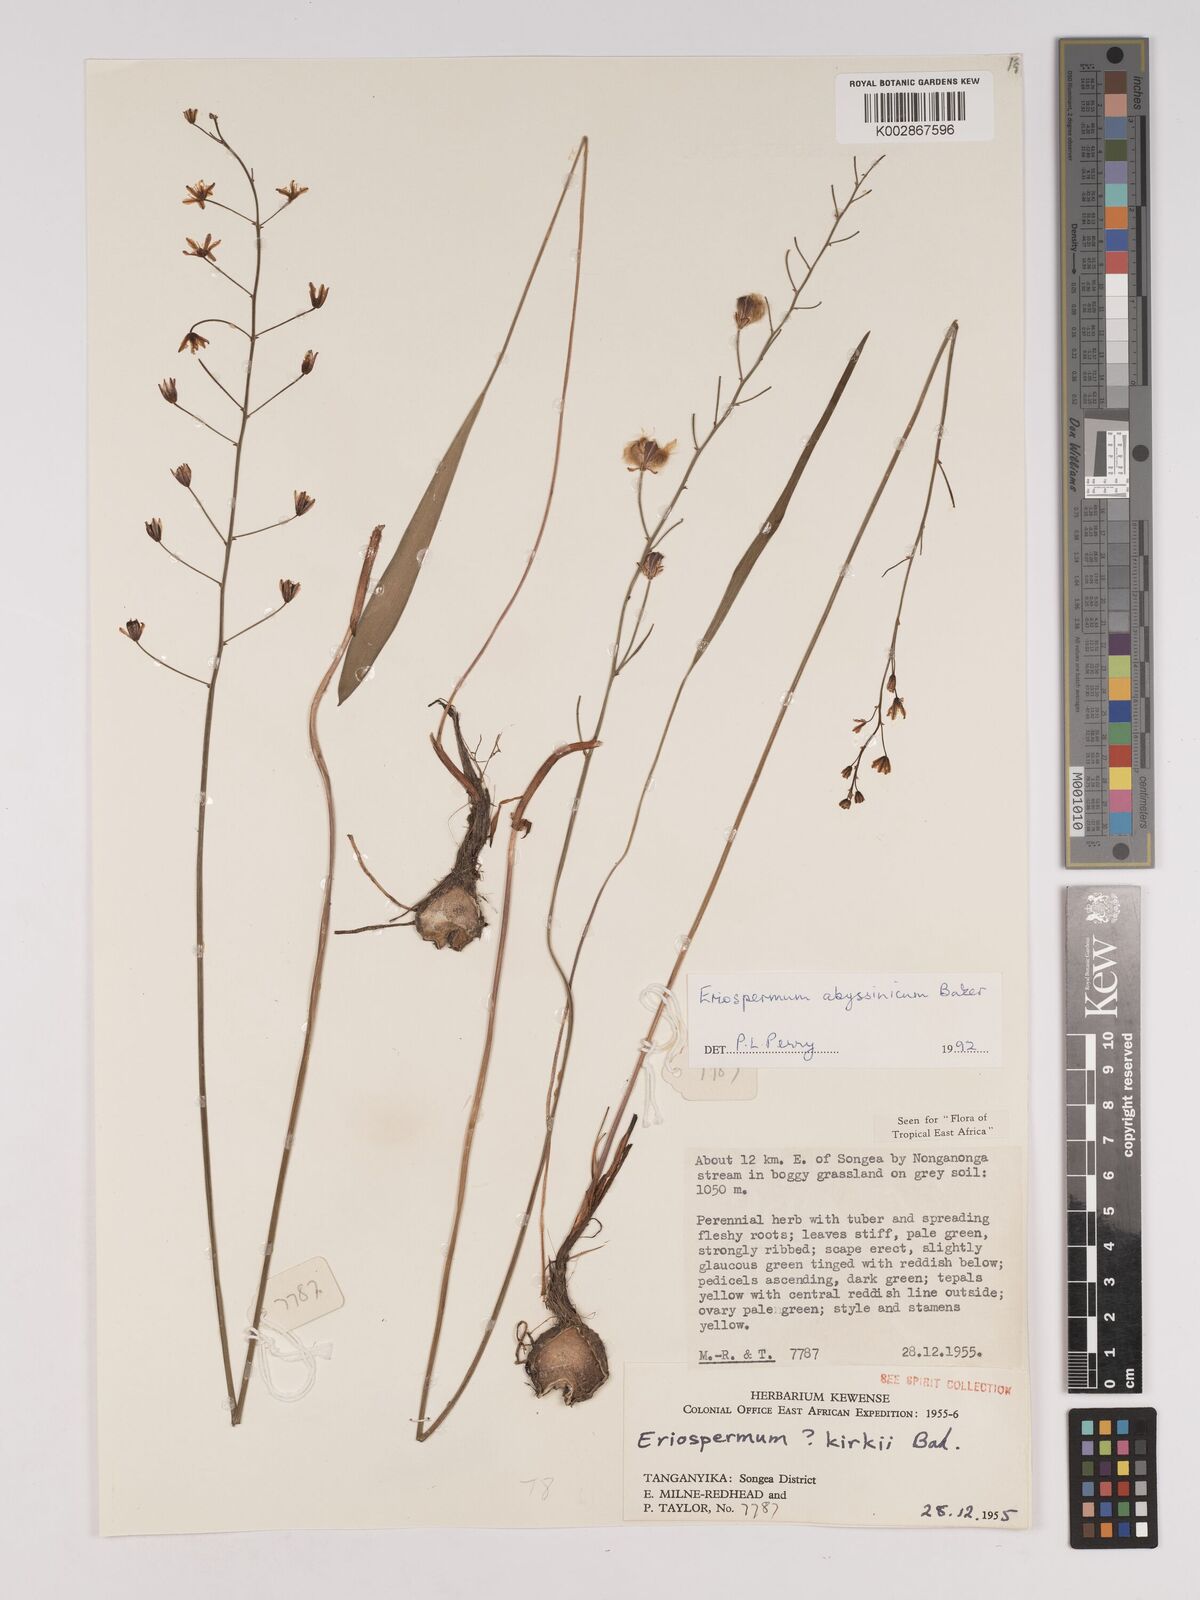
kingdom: Plantae
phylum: Tracheophyta
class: Liliopsida
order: Asparagales
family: Asparagaceae
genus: Eriospermum
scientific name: Eriospermum abyssinicum
